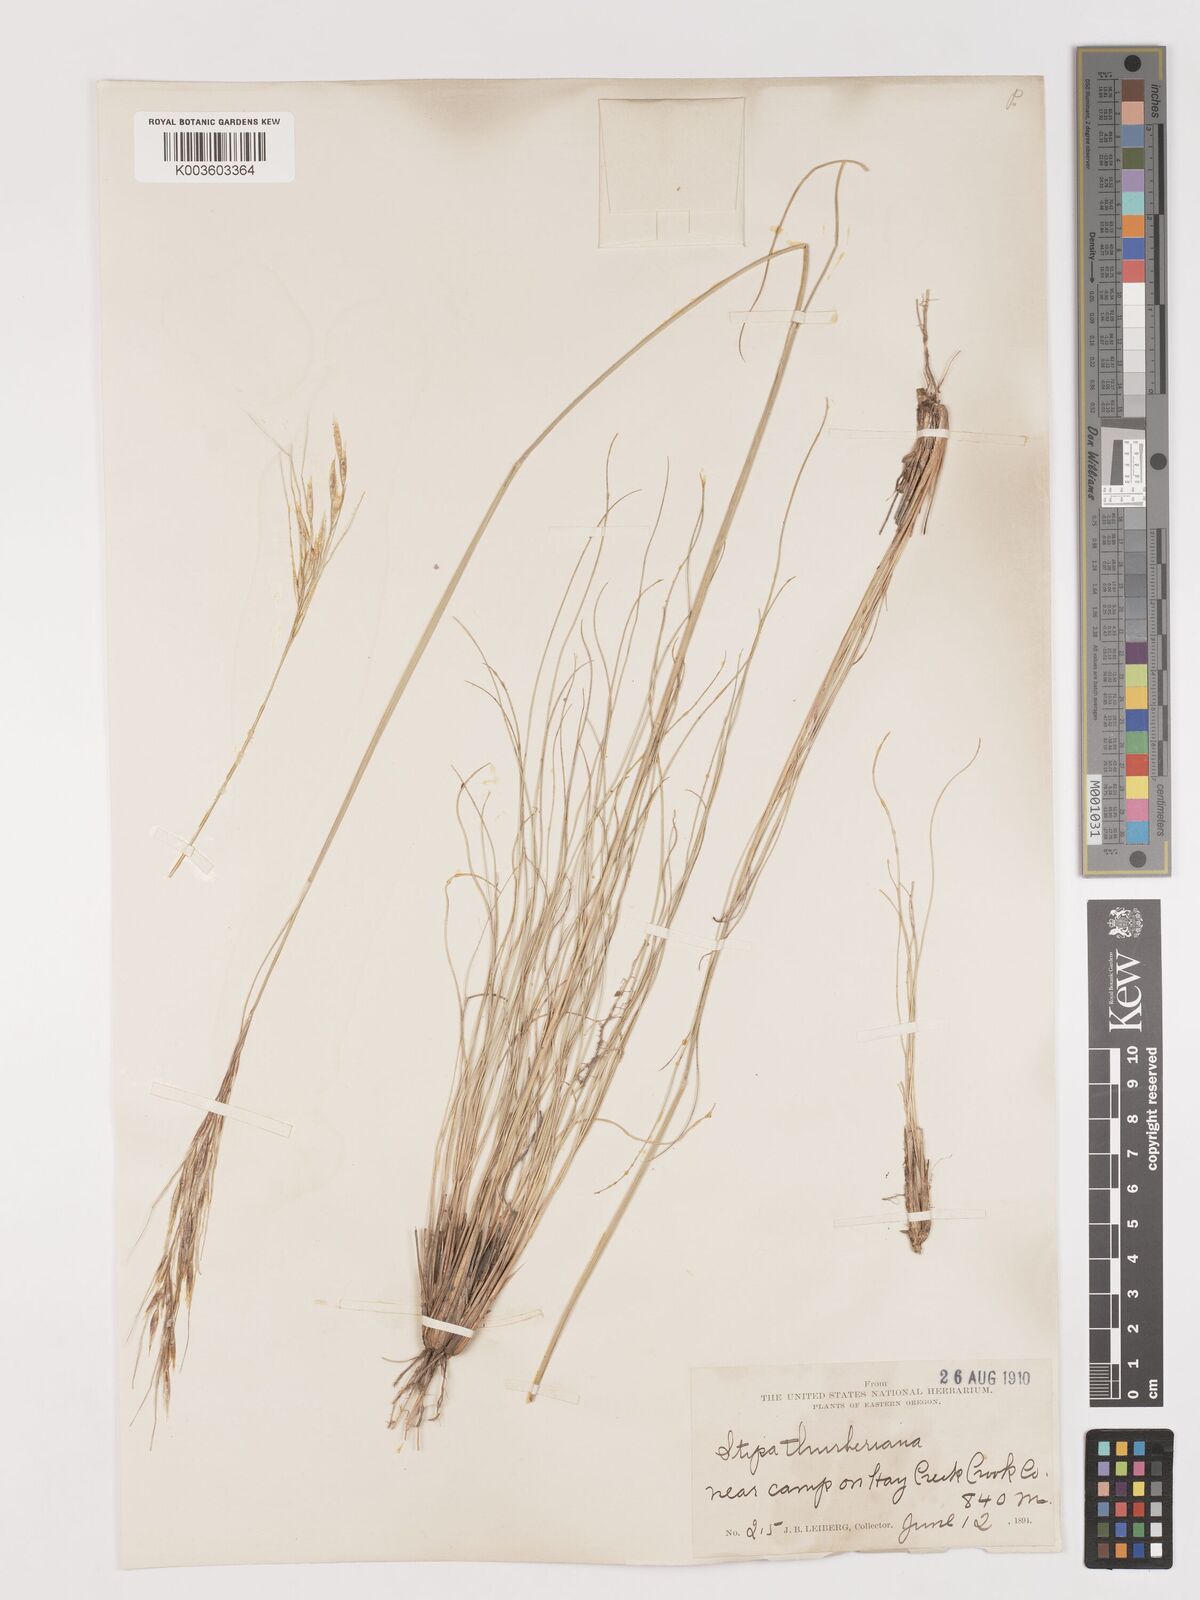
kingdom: Plantae
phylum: Tracheophyta
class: Liliopsida
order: Poales
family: Poaceae
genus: Eriocoma
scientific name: Eriocoma thurberiana
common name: Thurber's needlegrass
